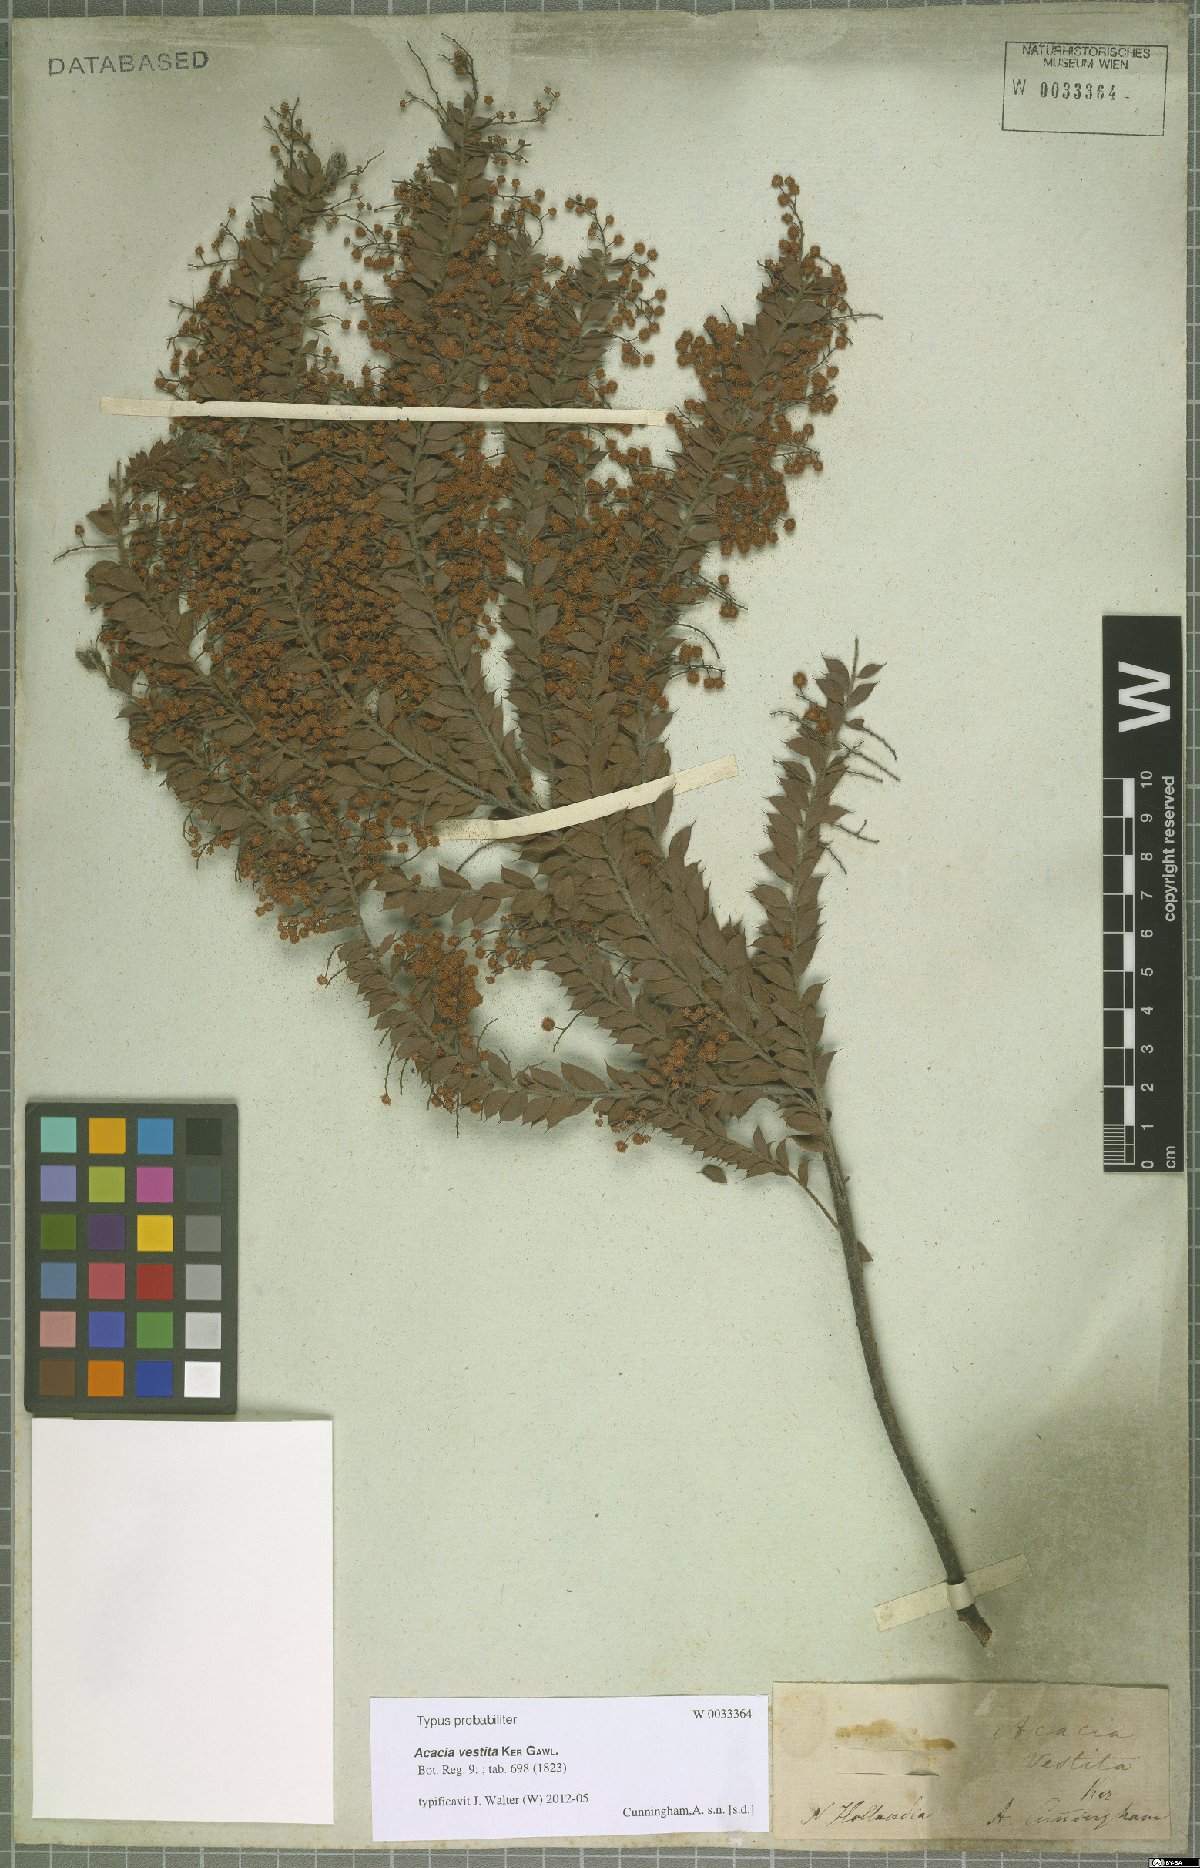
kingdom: Plantae
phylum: Tracheophyta
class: Magnoliopsida
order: Fabales
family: Fabaceae
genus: Acacia
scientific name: Acacia vestita
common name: Hairy wattle
